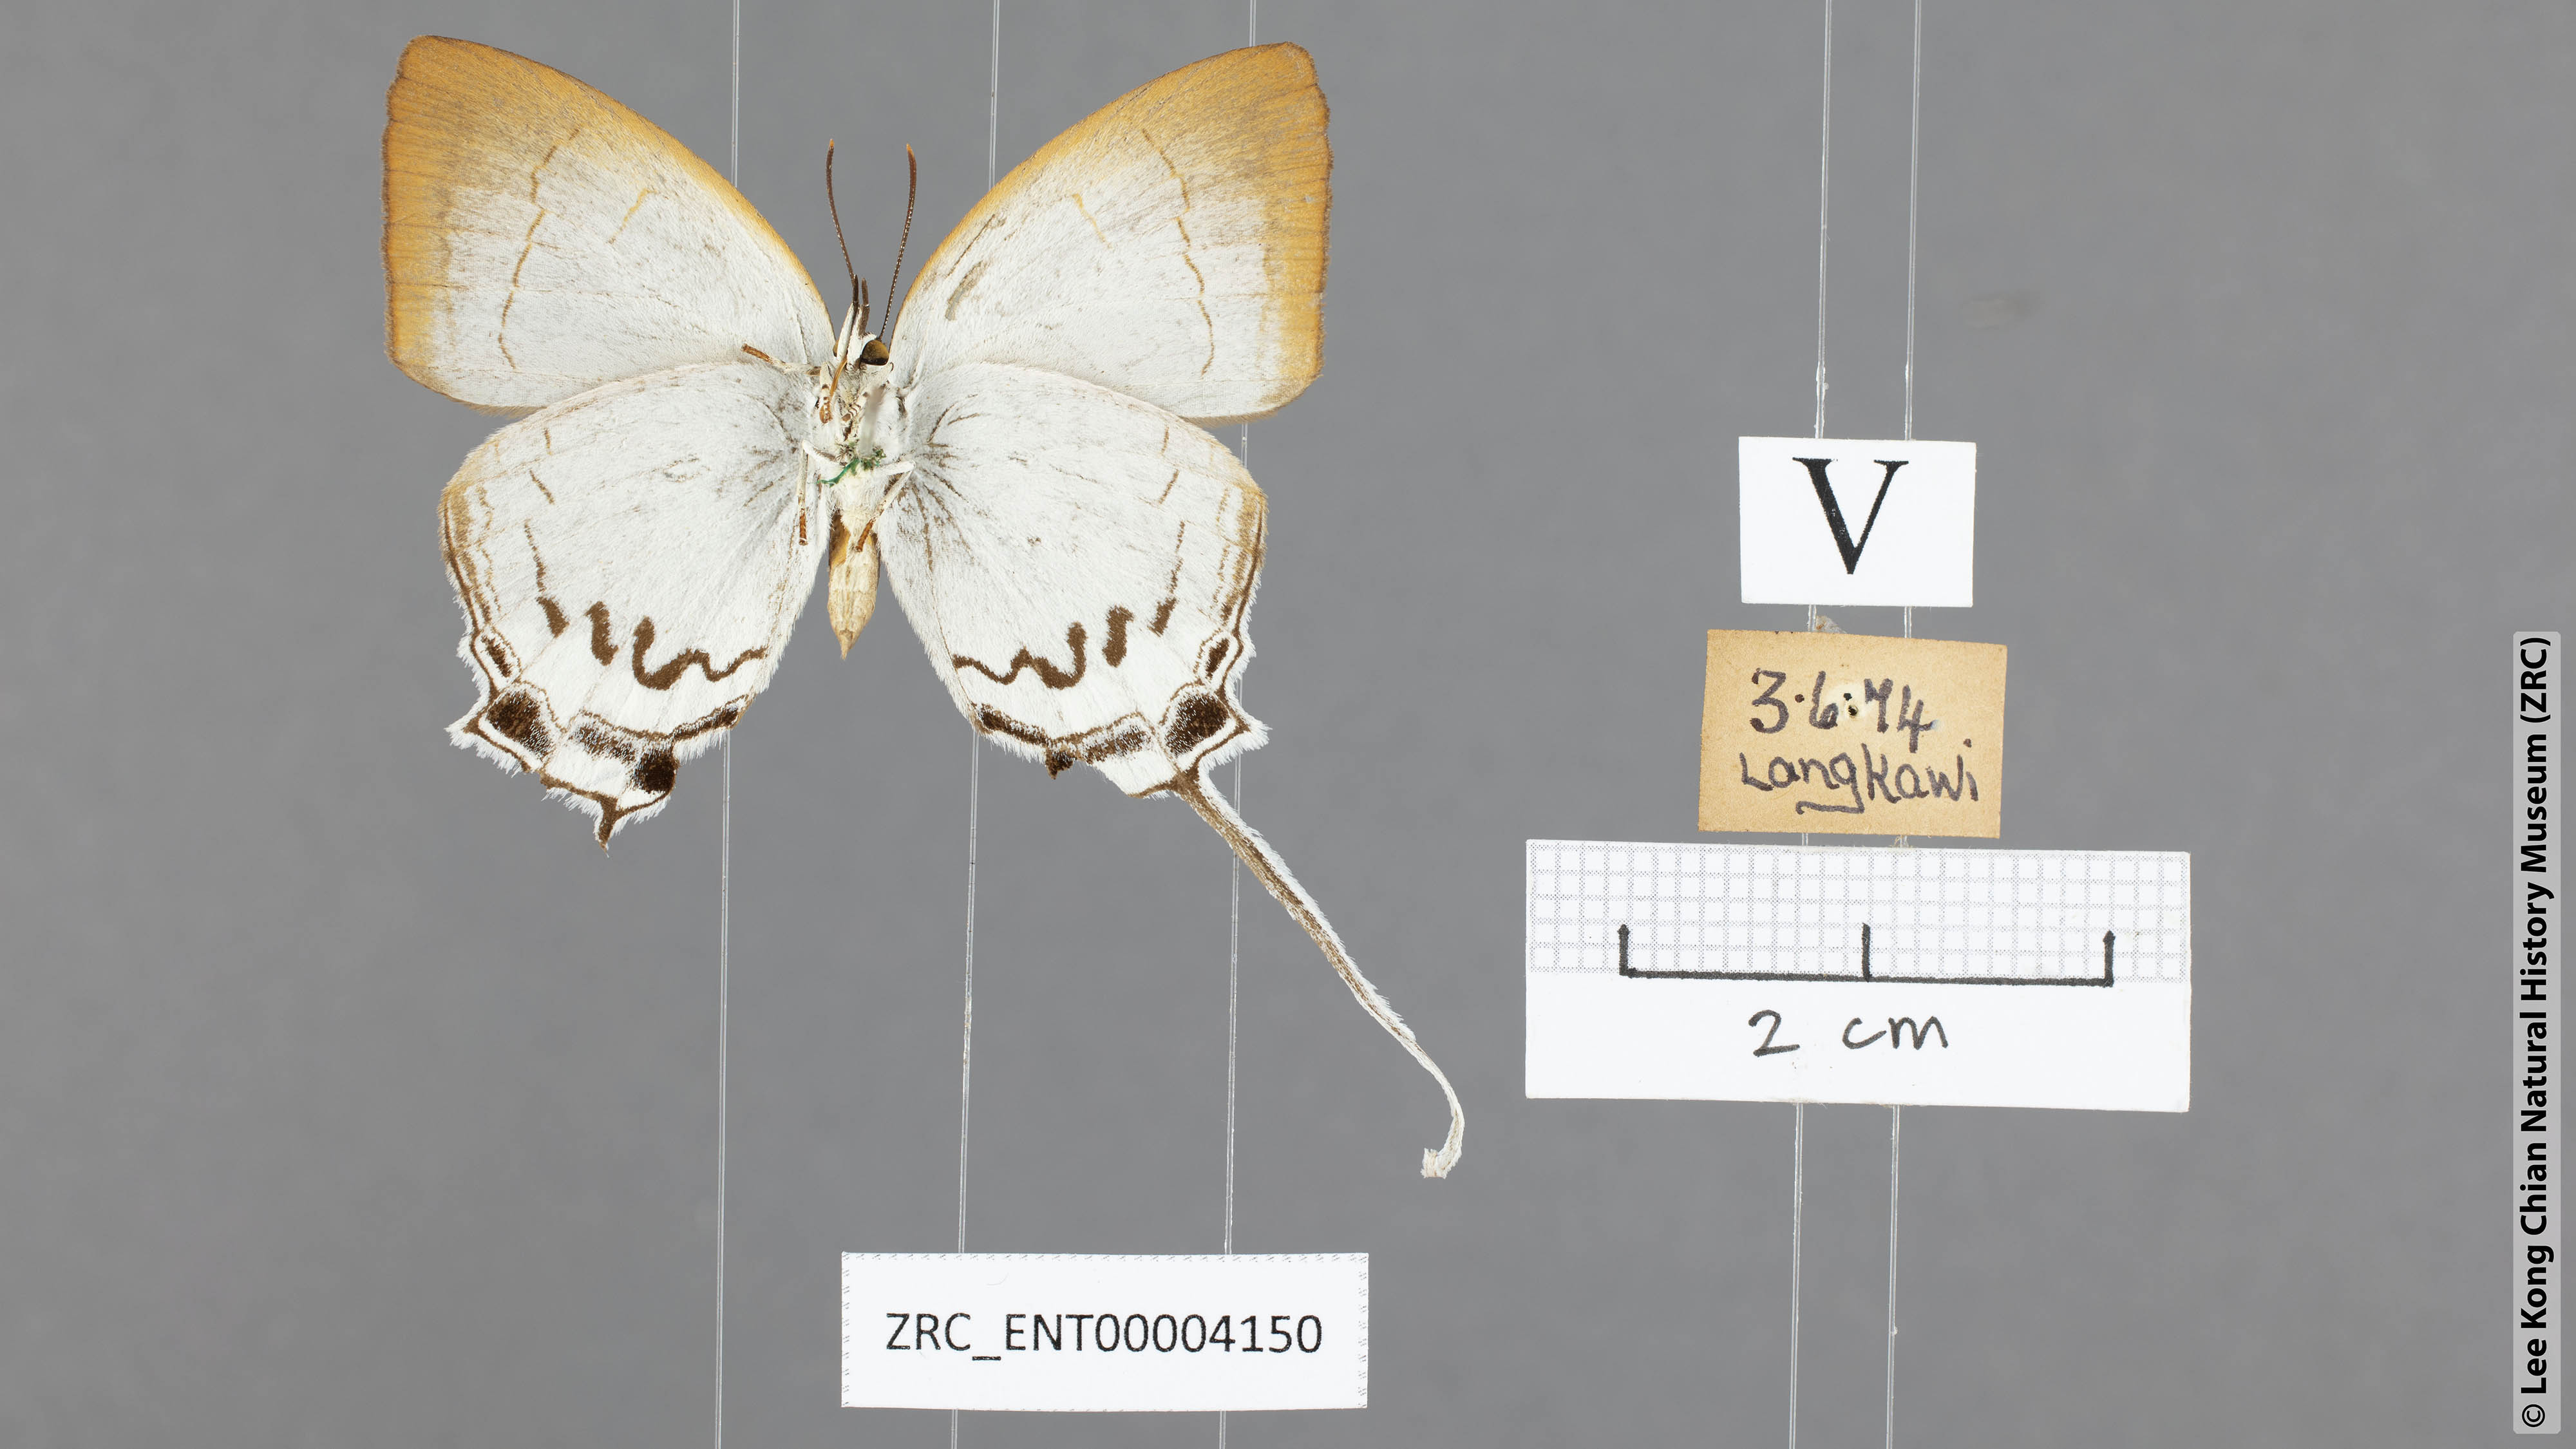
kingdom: Animalia
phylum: Arthropoda
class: Insecta
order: Lepidoptera
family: Lycaenidae
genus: Cheritra
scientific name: Cheritra freja
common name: Common imperial
